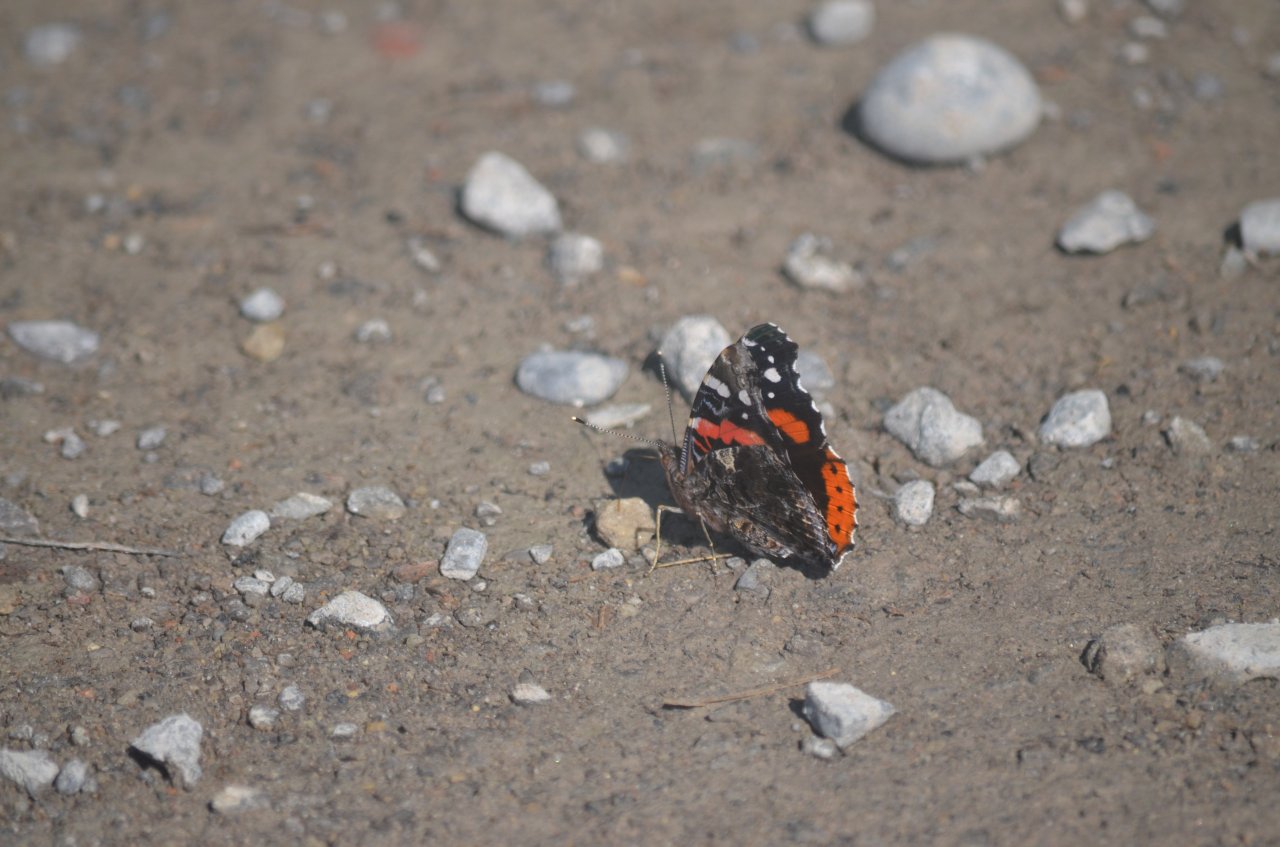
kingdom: Animalia
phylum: Arthropoda
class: Insecta
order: Lepidoptera
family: Nymphalidae
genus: Vanessa
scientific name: Vanessa atalanta
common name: Red Admiral
